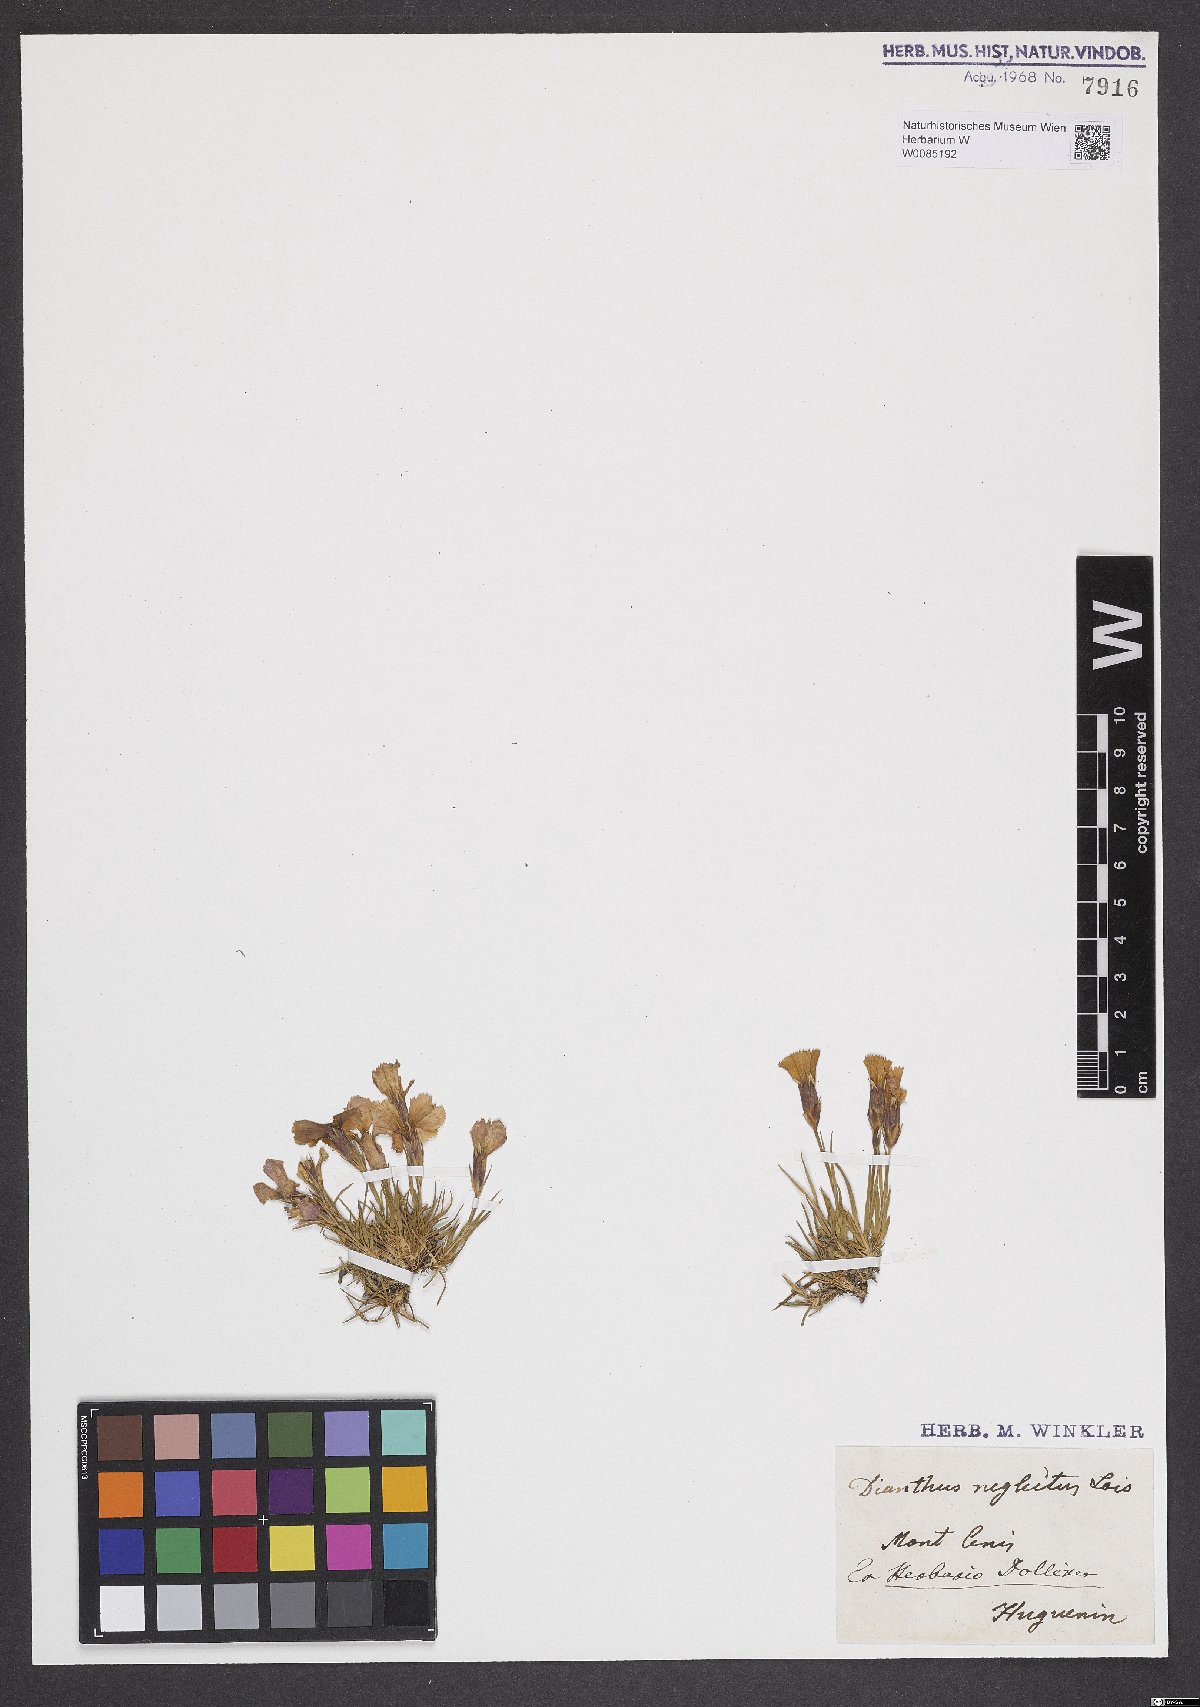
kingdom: Plantae
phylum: Tracheophyta
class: Magnoliopsida
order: Caryophyllales
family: Caryophyllaceae
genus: Dianthus
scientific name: Dianthus pavonius
